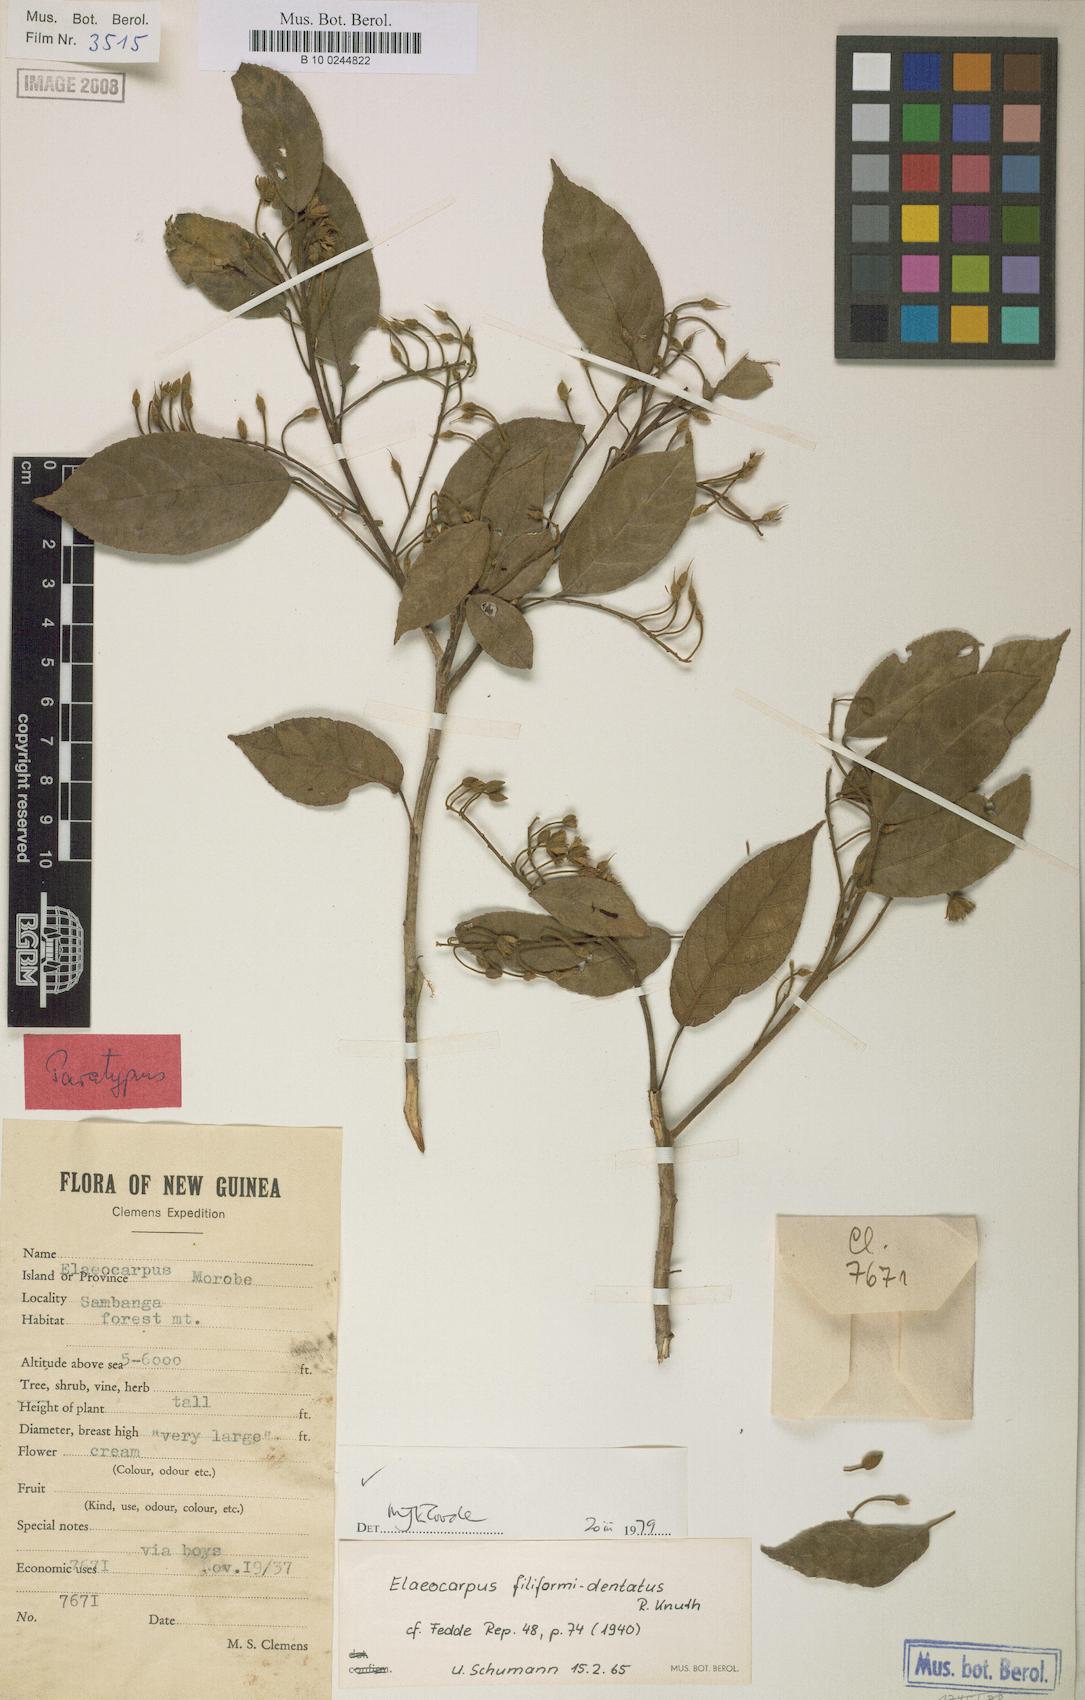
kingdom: Plantae
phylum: Tracheophyta
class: Magnoliopsida
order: Oxalidales
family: Elaeocarpaceae
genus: Elaeocarpus
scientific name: Elaeocarpus filiformidentatus
